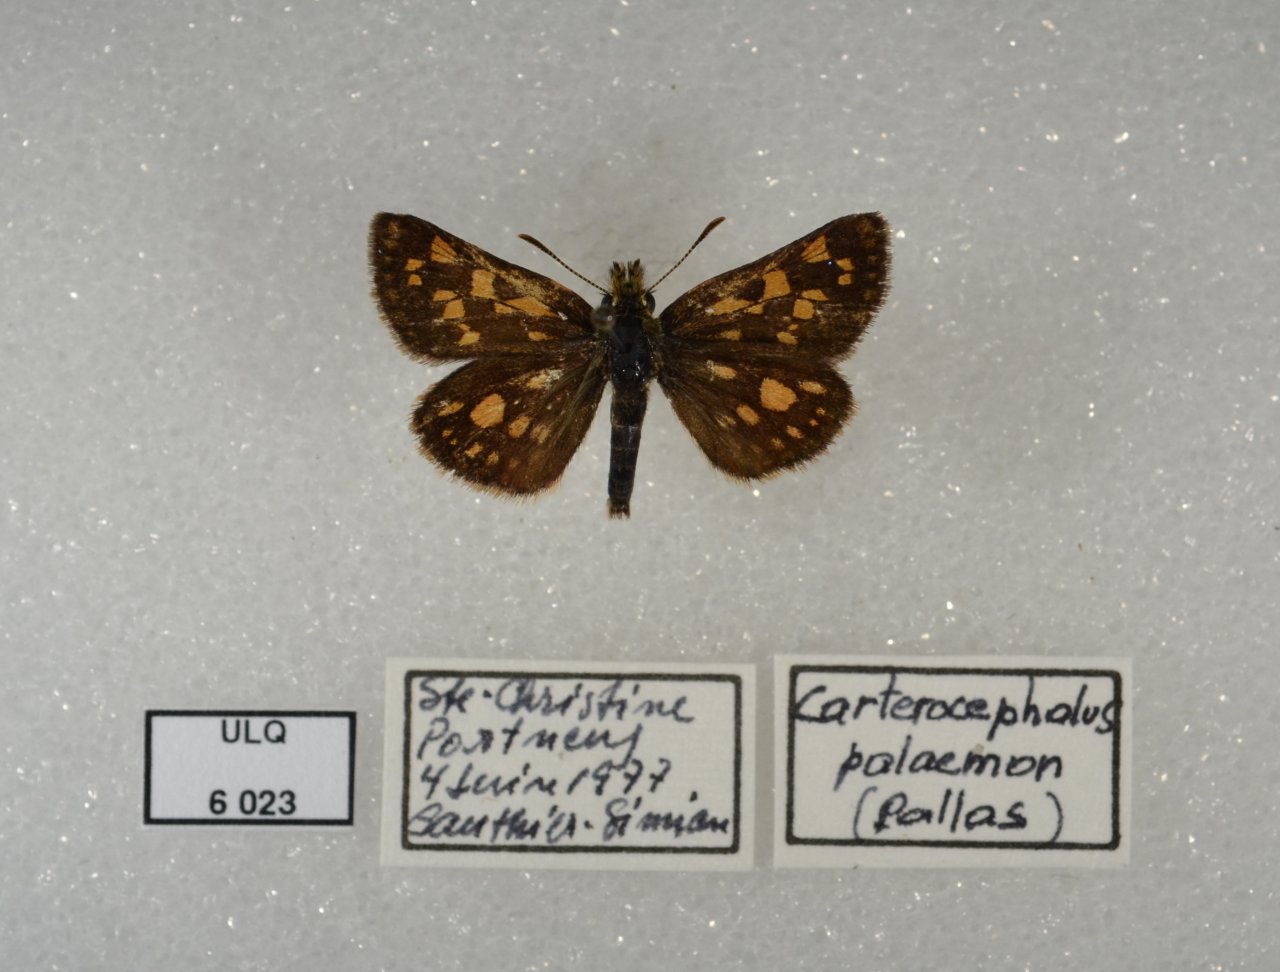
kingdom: Animalia
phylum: Arthropoda
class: Insecta
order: Lepidoptera
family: Hesperiidae
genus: Carterocephalus
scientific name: Carterocephalus palaemon
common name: Chequered Skipper
